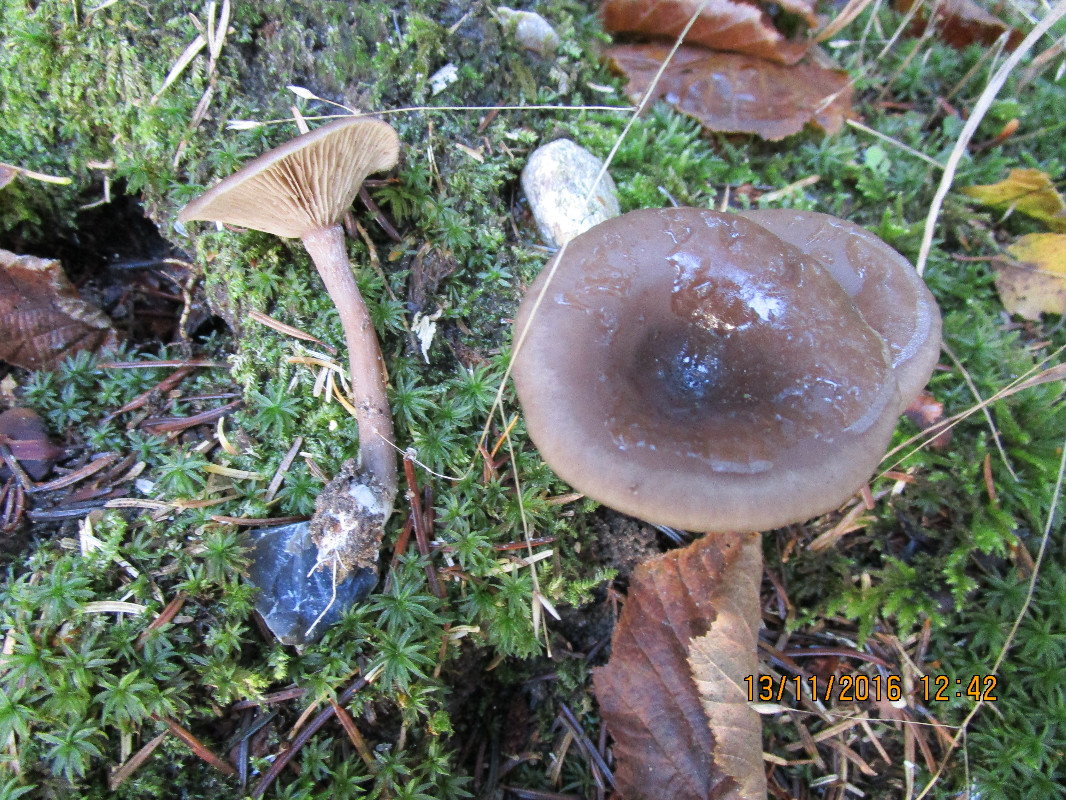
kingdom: Fungi
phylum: Basidiomycota
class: Agaricomycetes
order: Agaricales
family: Pseudoclitocybaceae
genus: Pseudoclitocybe
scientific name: Pseudoclitocybe cyathiformis
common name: almindelig bægertragthat
